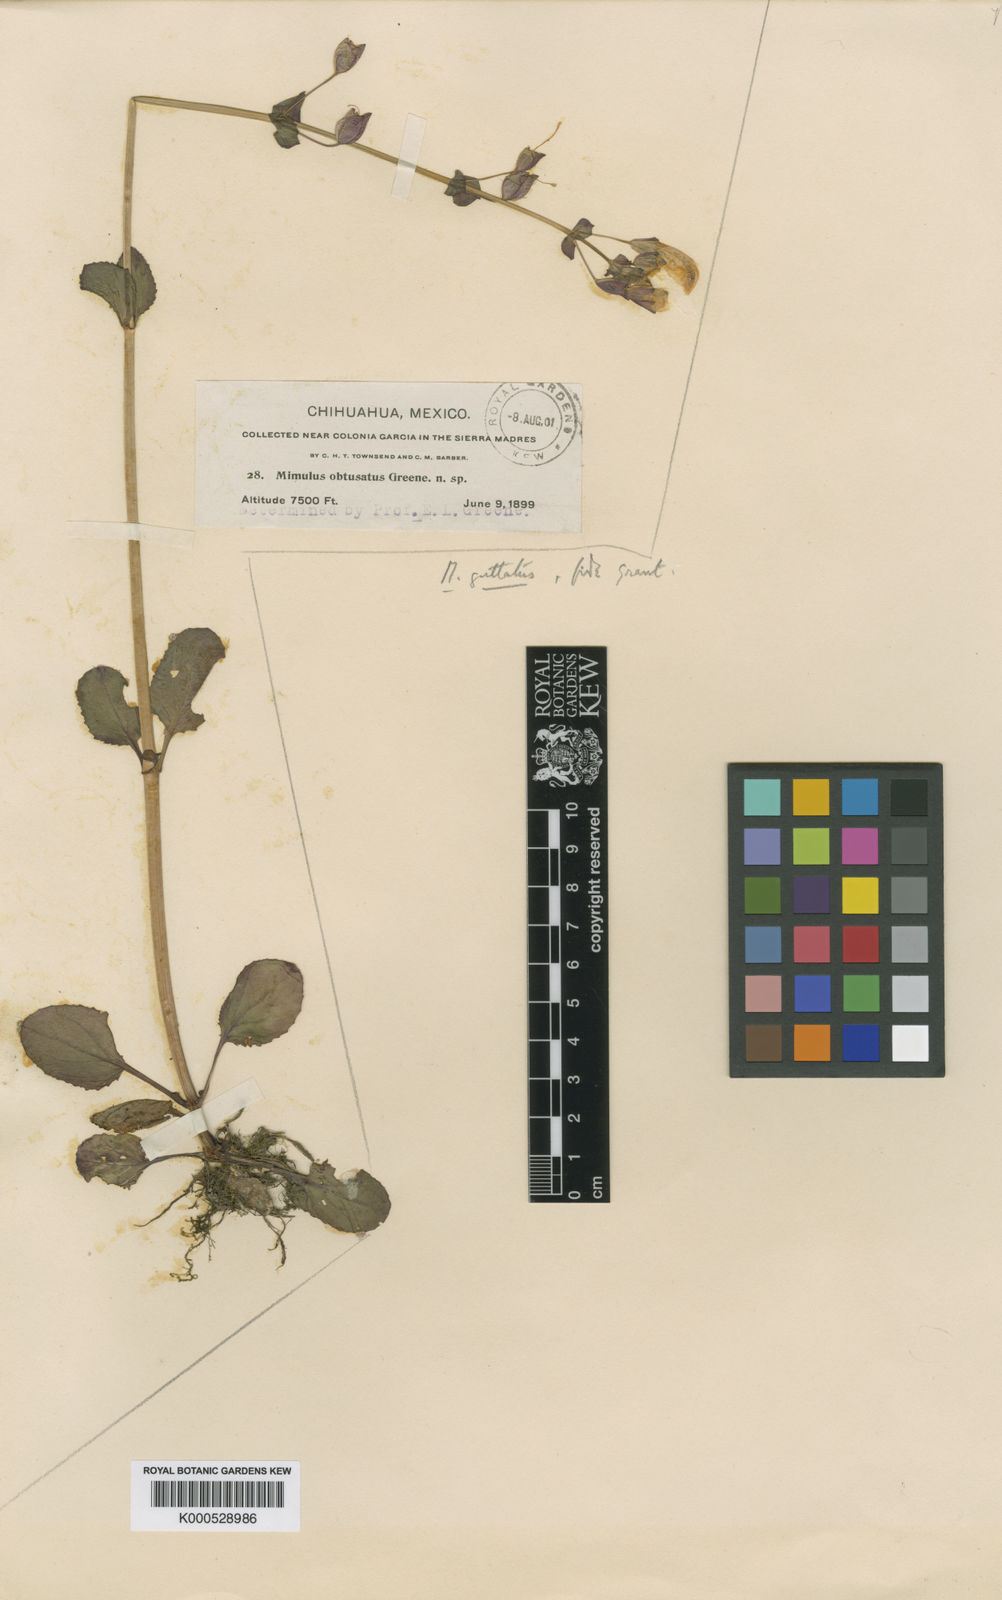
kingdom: Plantae
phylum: Tracheophyta
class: Magnoliopsida
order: Lamiales
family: Phrymaceae
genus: Erythranthe
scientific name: Erythranthe guttata
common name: Monkeyflower
